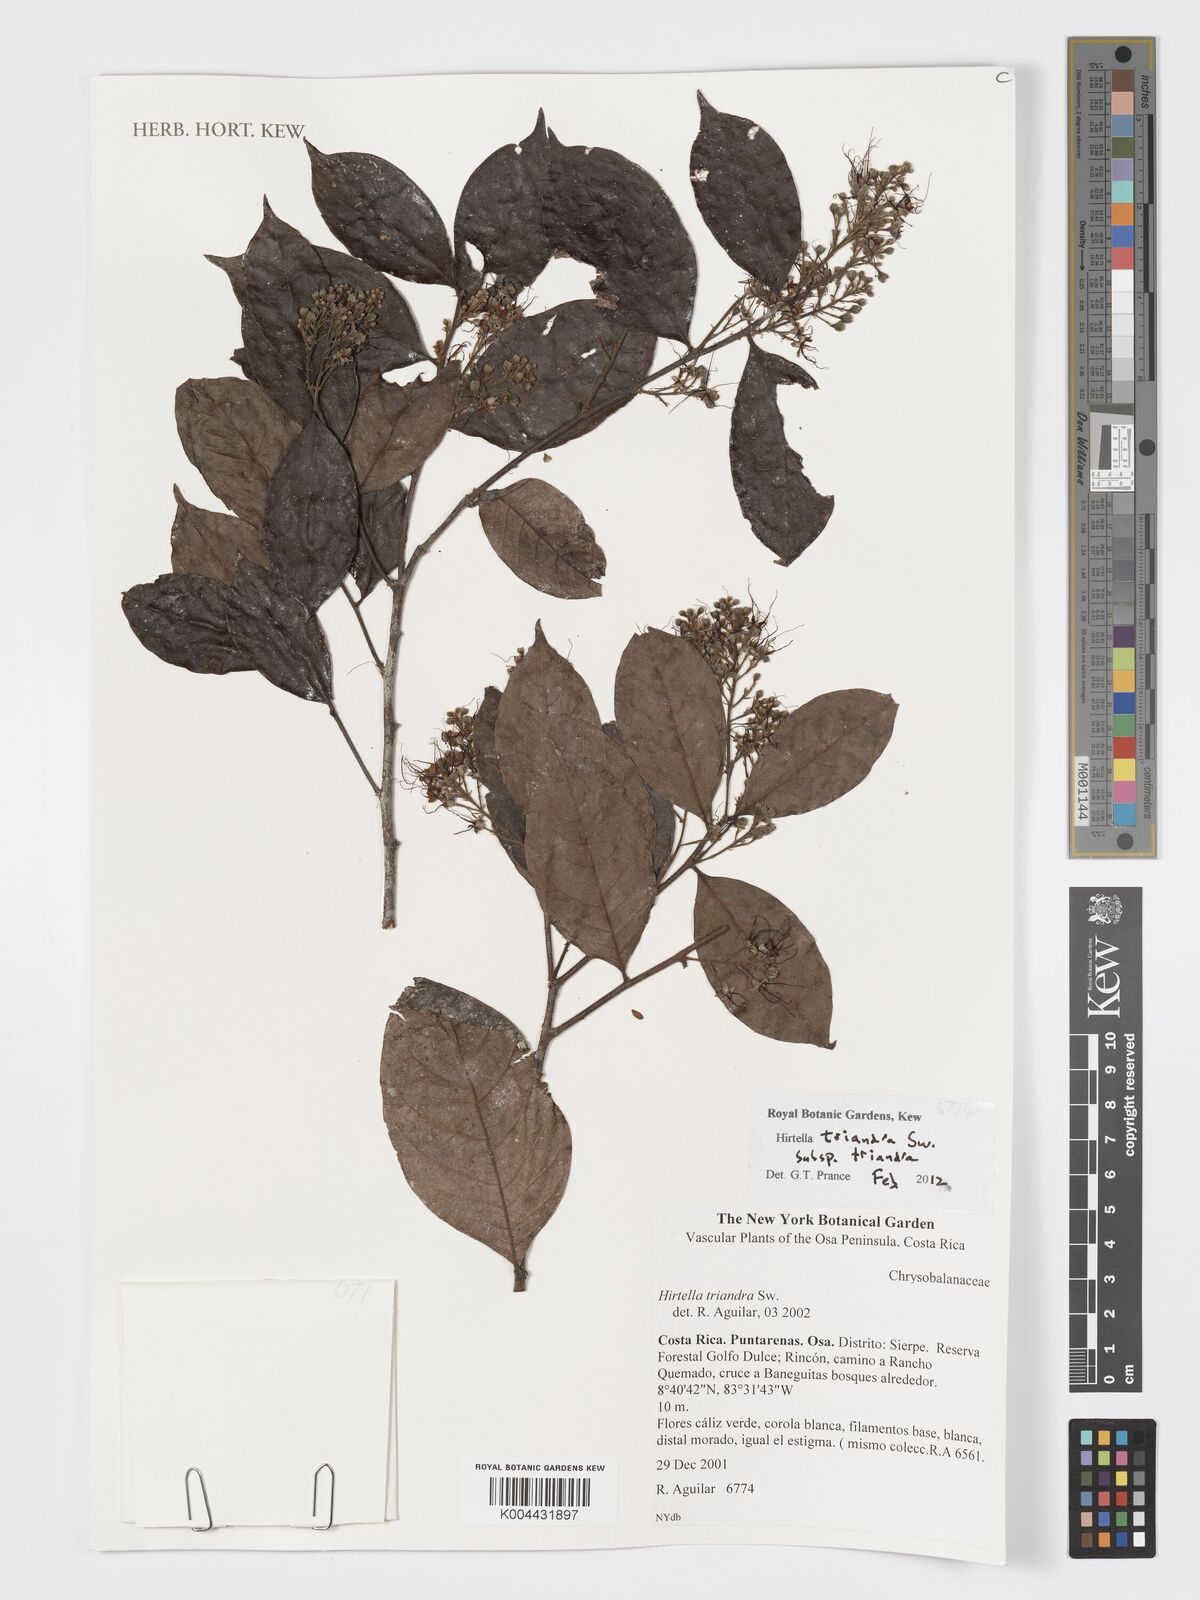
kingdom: Plantae
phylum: Tracheophyta
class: Magnoliopsida
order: Malpighiales
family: Chrysobalanaceae
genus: Hirtella
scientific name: Hirtella triandra
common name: Hairy plum
